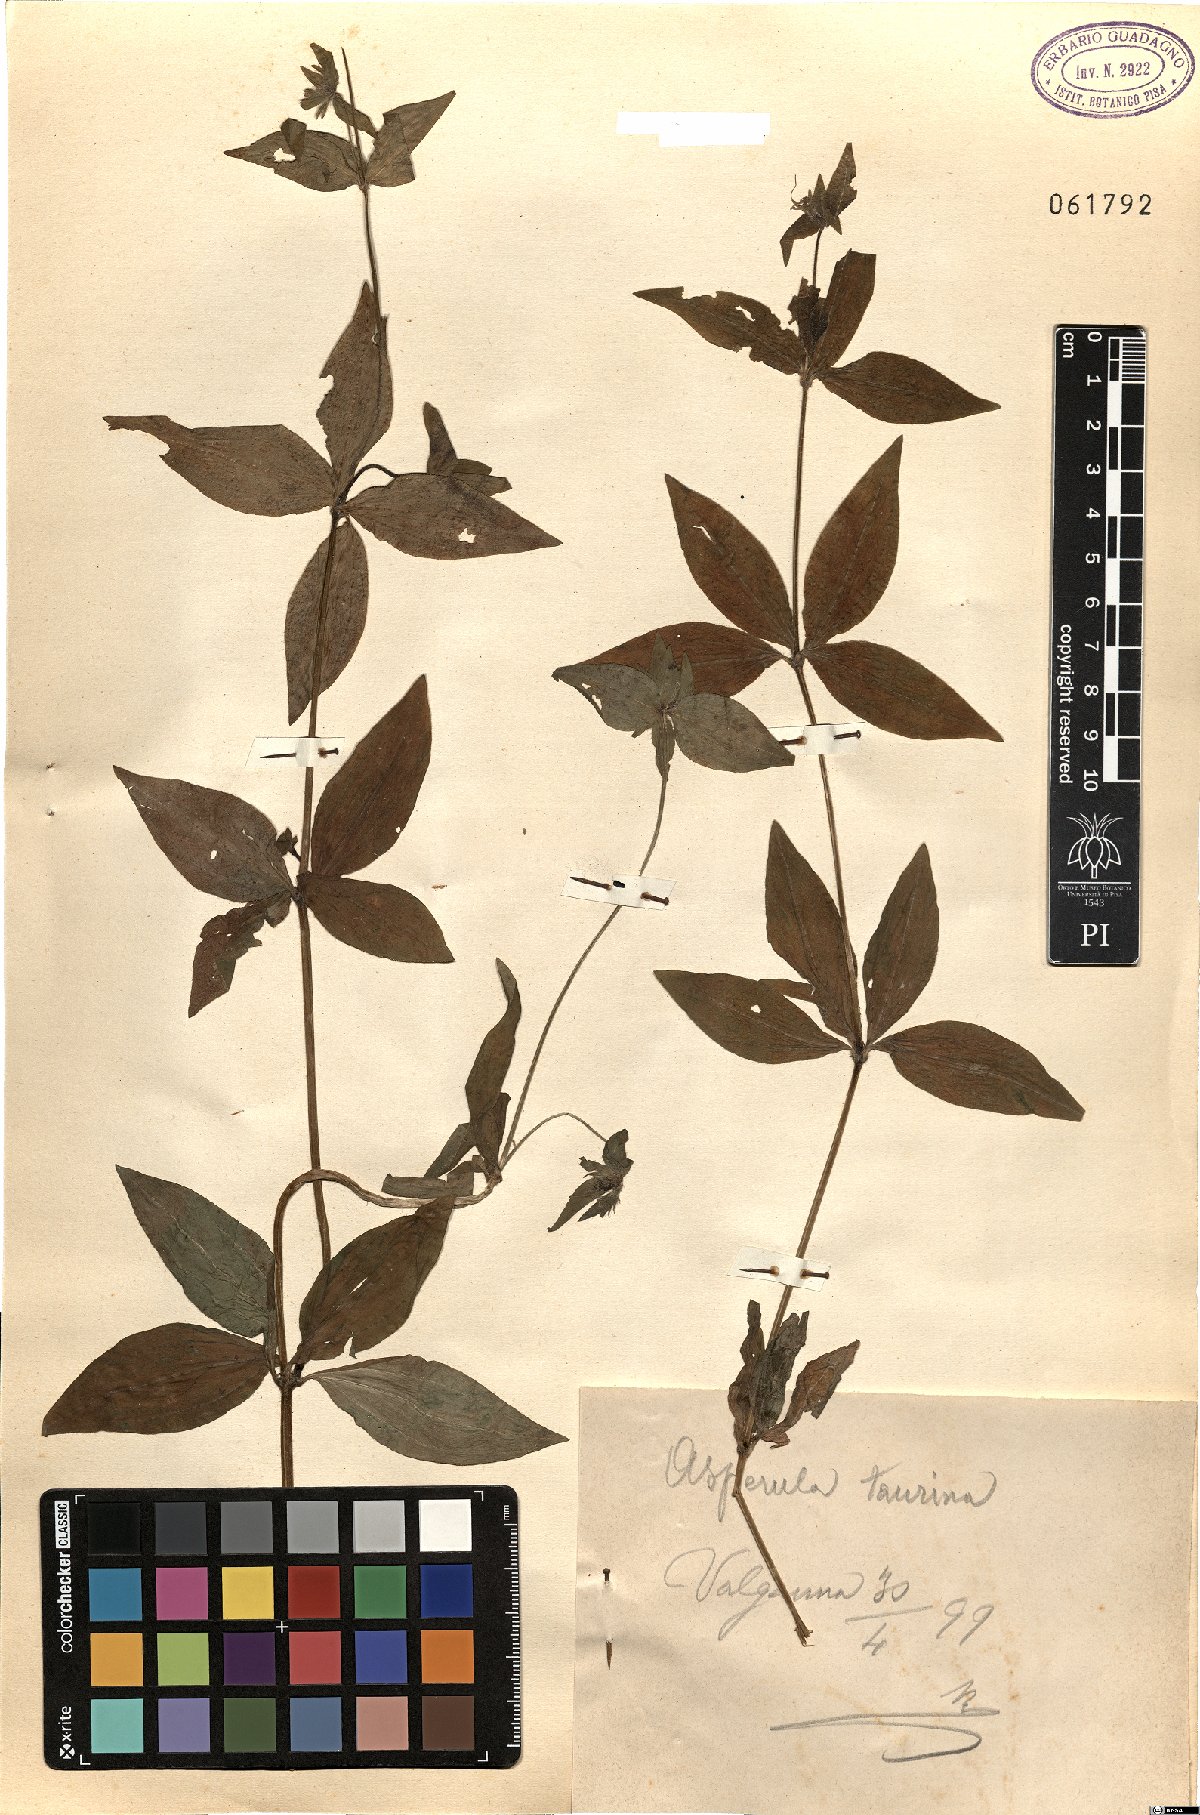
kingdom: Plantae
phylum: Tracheophyta
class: Magnoliopsida
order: Gentianales
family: Rubiaceae
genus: Asperula
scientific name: Asperula taurina
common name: Pink woodruff
